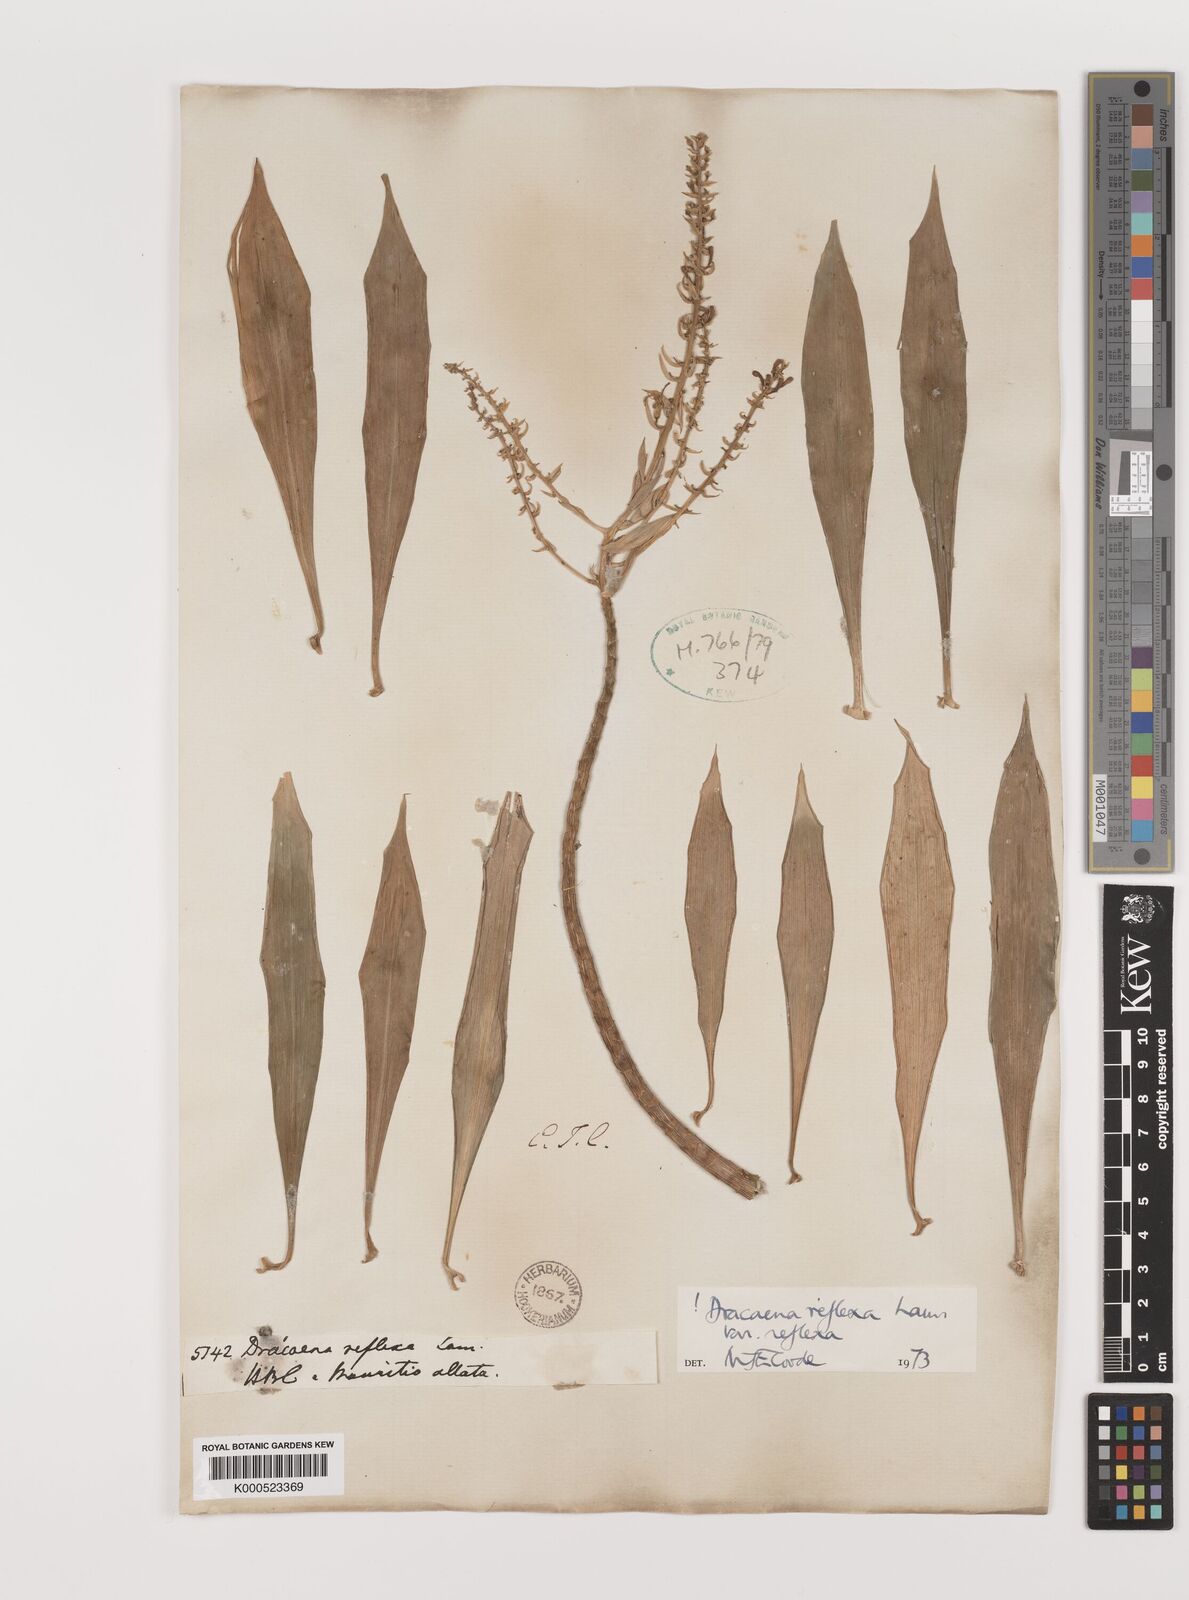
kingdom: Plantae
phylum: Tracheophyta
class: Liliopsida
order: Asparagales
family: Asparagaceae
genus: Dracaena
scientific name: Dracaena reflexa
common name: Song-of-india
